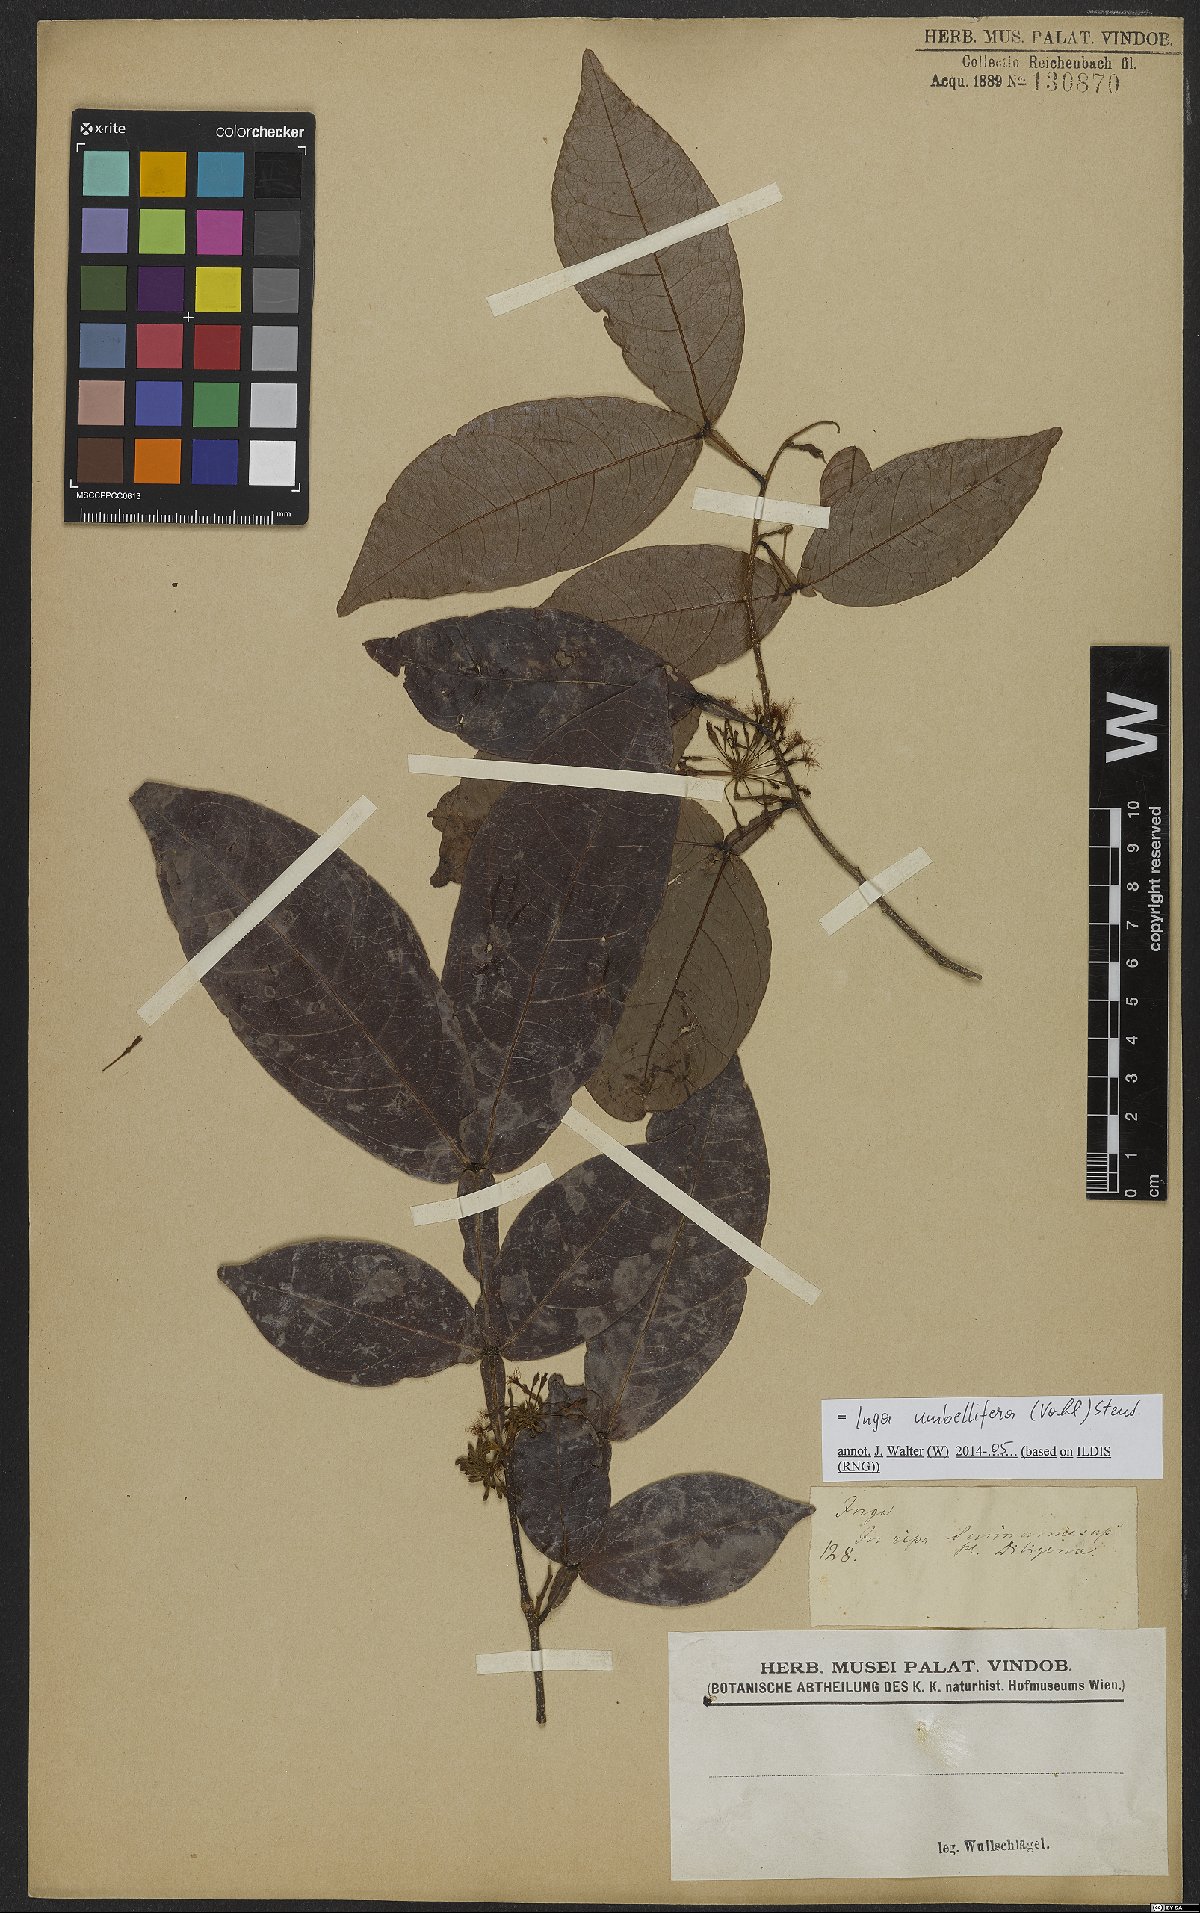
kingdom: Plantae
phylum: Tracheophyta
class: Magnoliopsida
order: Fabales
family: Fabaceae
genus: Inga
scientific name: Inga umbellifera
